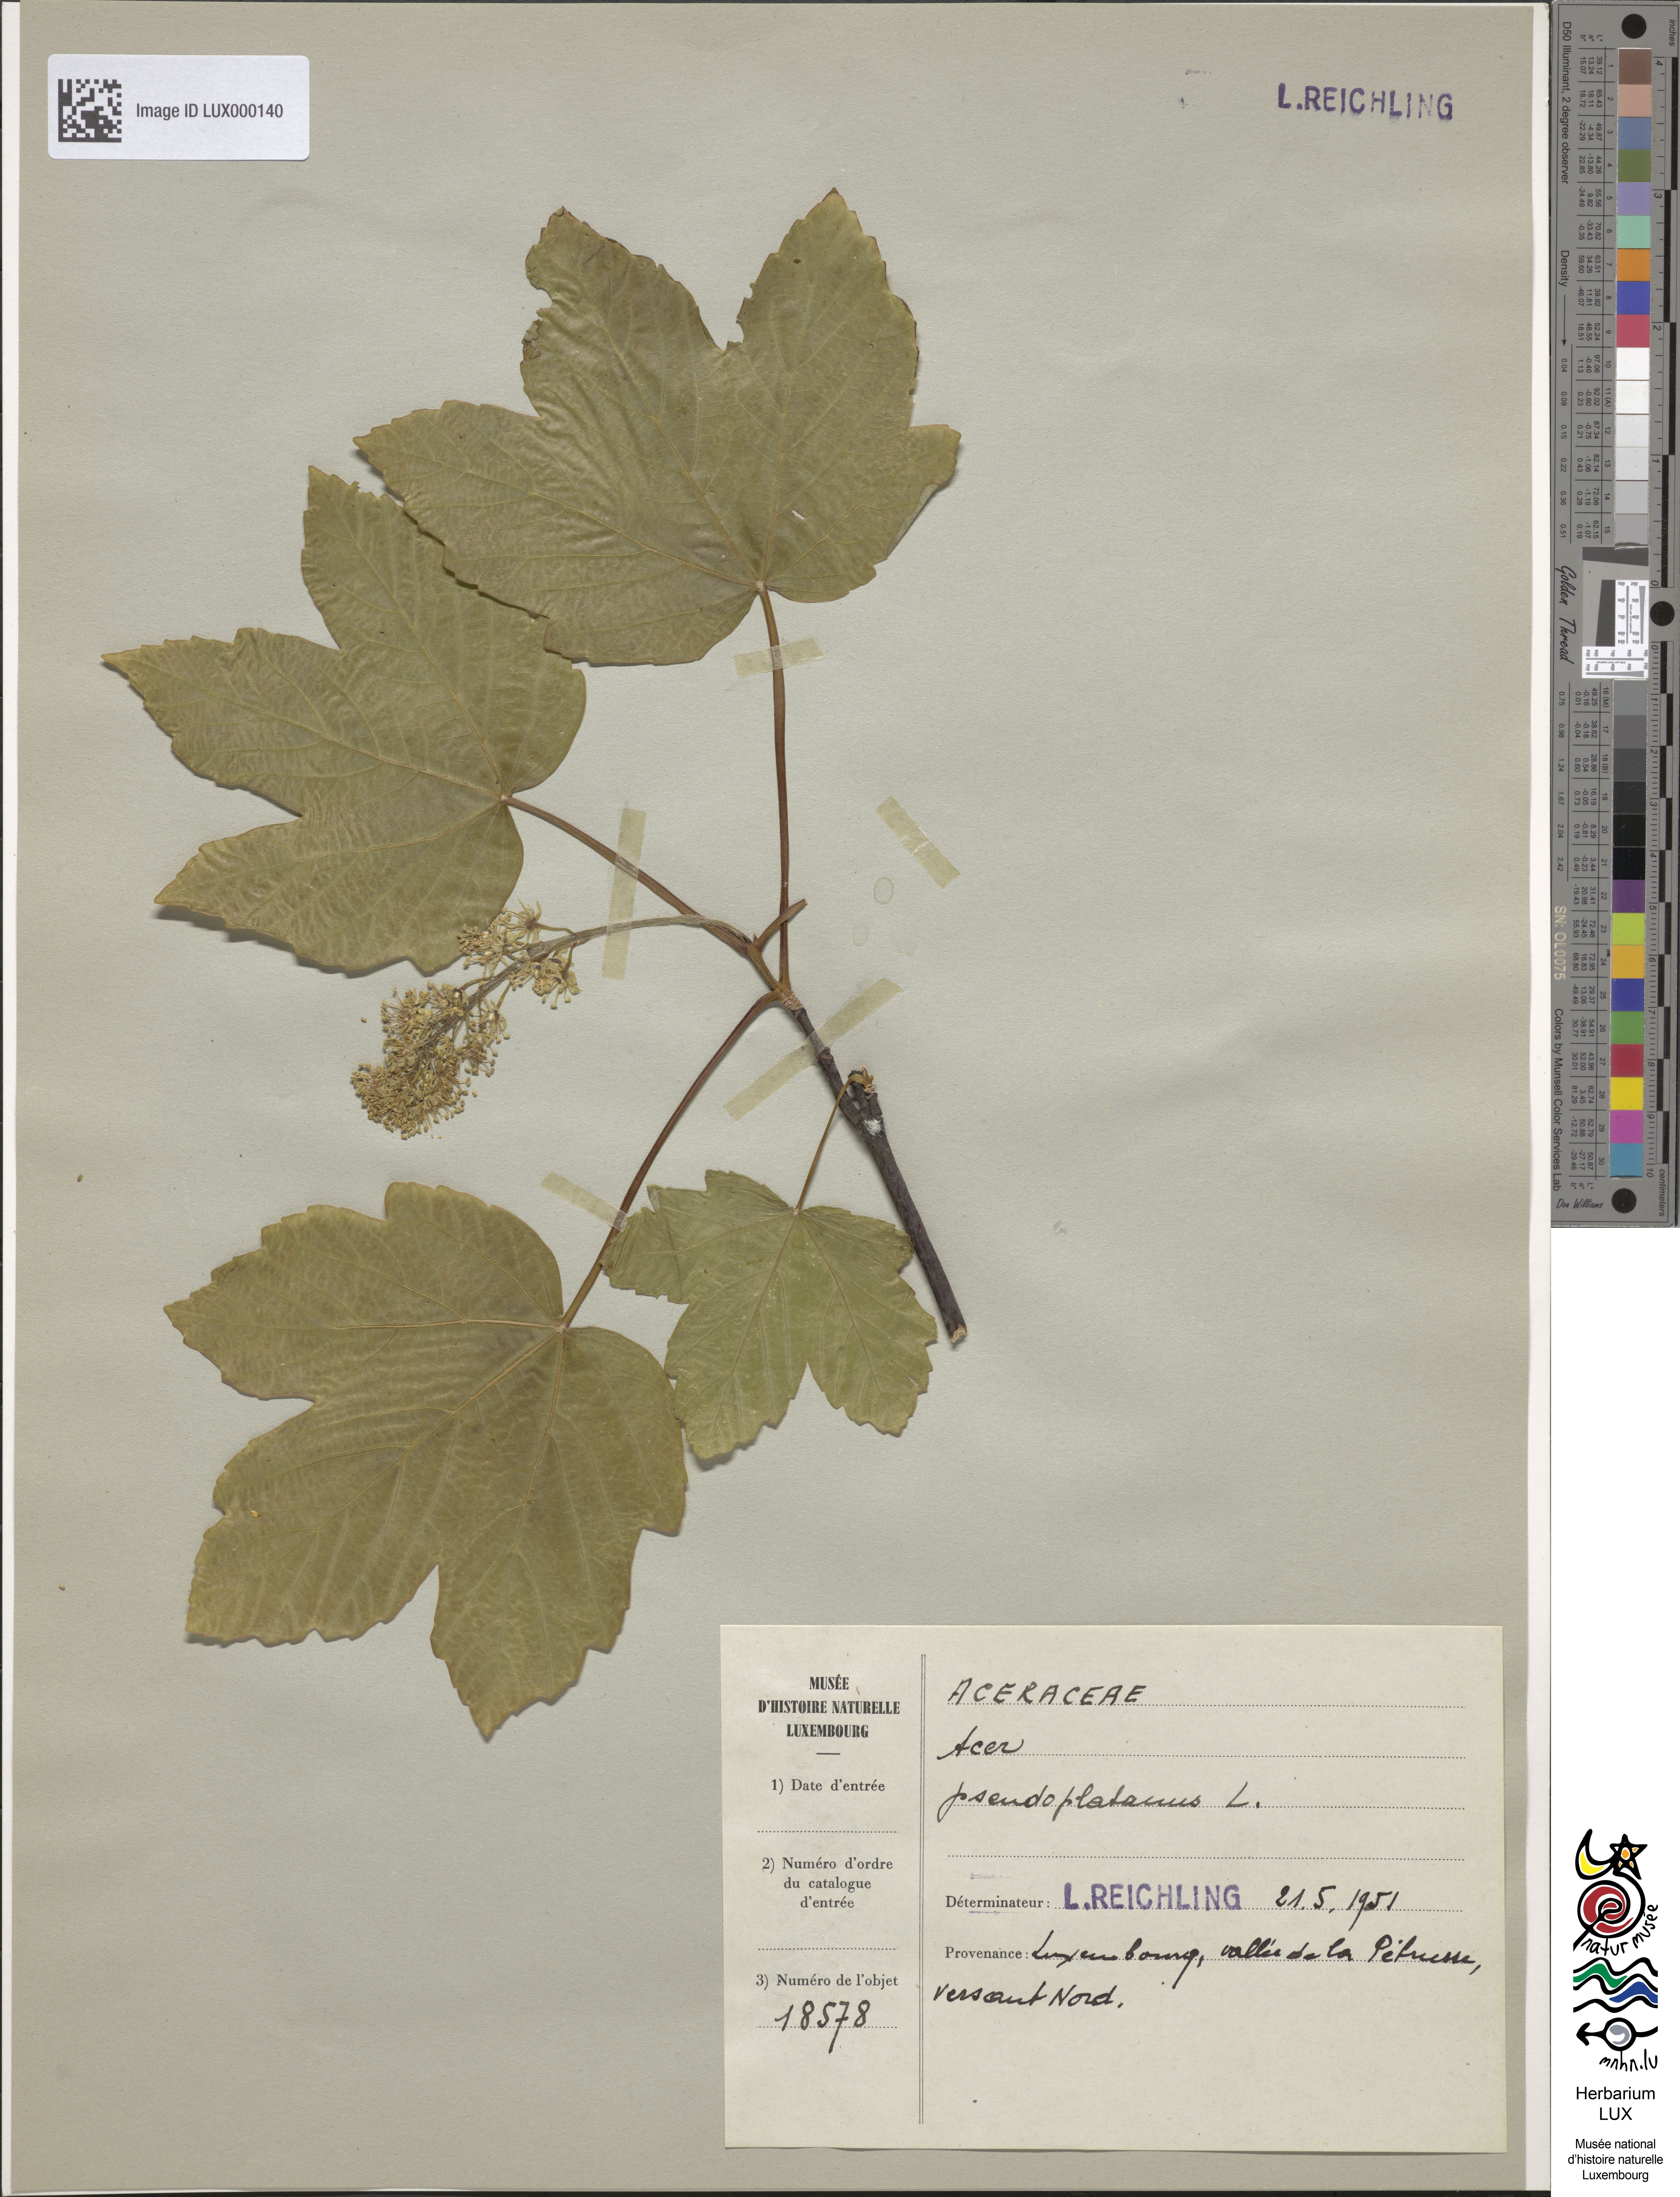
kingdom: Plantae
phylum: Tracheophyta
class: Magnoliopsida
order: Sapindales
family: Sapindaceae
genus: Acer
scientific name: Acer pseudoplatanus
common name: Sycamore
